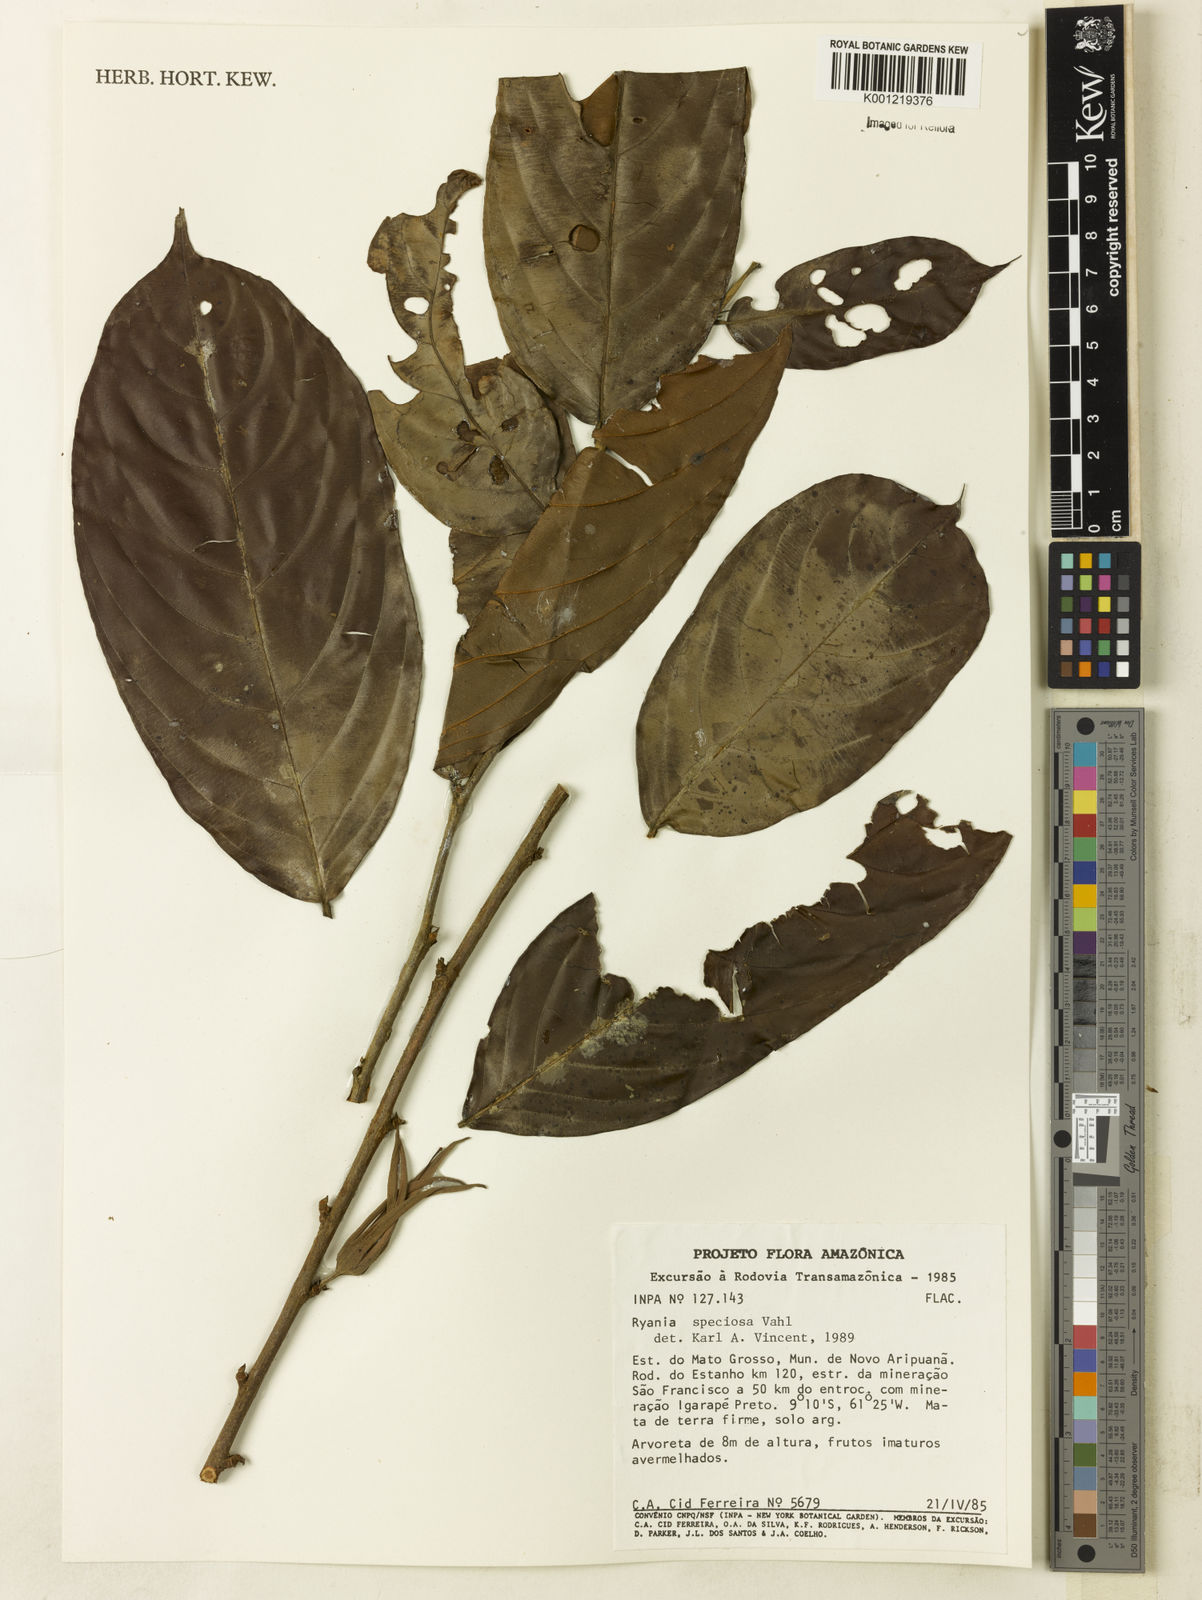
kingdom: Plantae
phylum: Tracheophyta
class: Magnoliopsida
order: Malpighiales
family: Salicaceae
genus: Ryania
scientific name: Ryania speciosa
